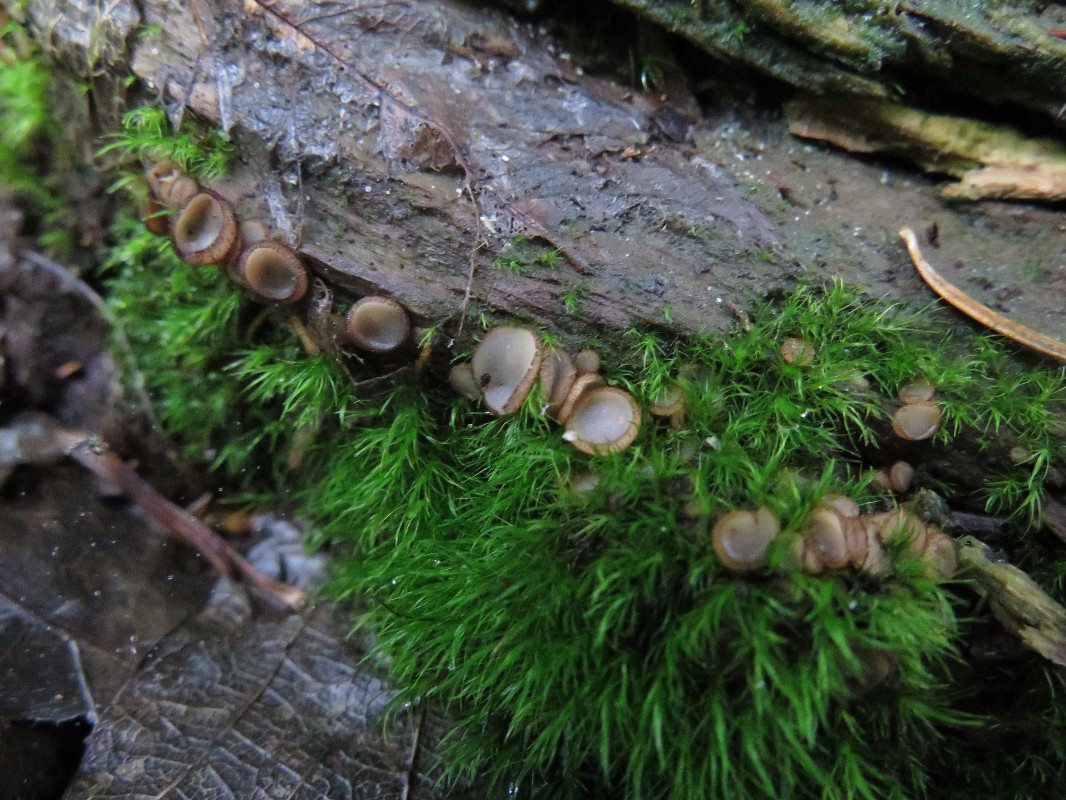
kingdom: Fungi
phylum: Ascomycota
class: Pezizomycetes
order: Pezizales
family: Pyronemataceae
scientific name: Pyronemataceae
